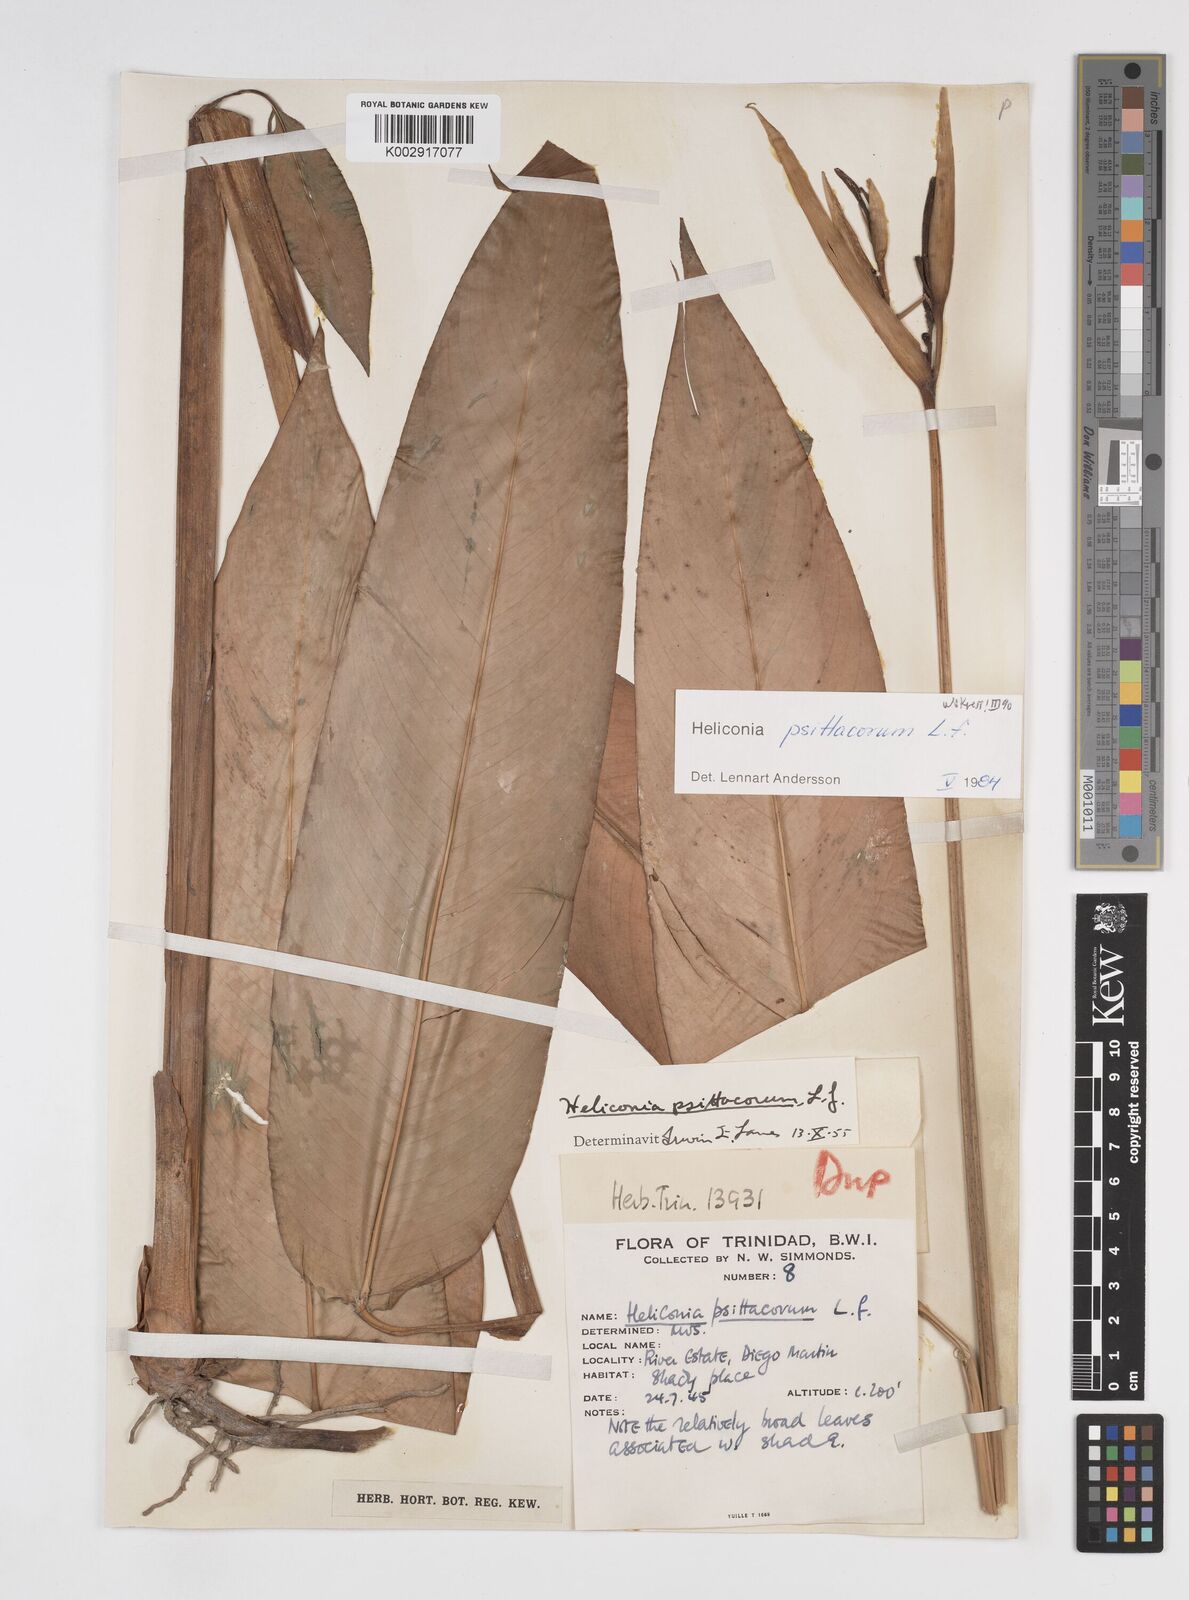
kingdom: Plantae
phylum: Tracheophyta
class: Liliopsida
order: Zingiberales
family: Heliconiaceae
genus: Heliconia
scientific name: Heliconia psittacorum
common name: Parrot's-flower
